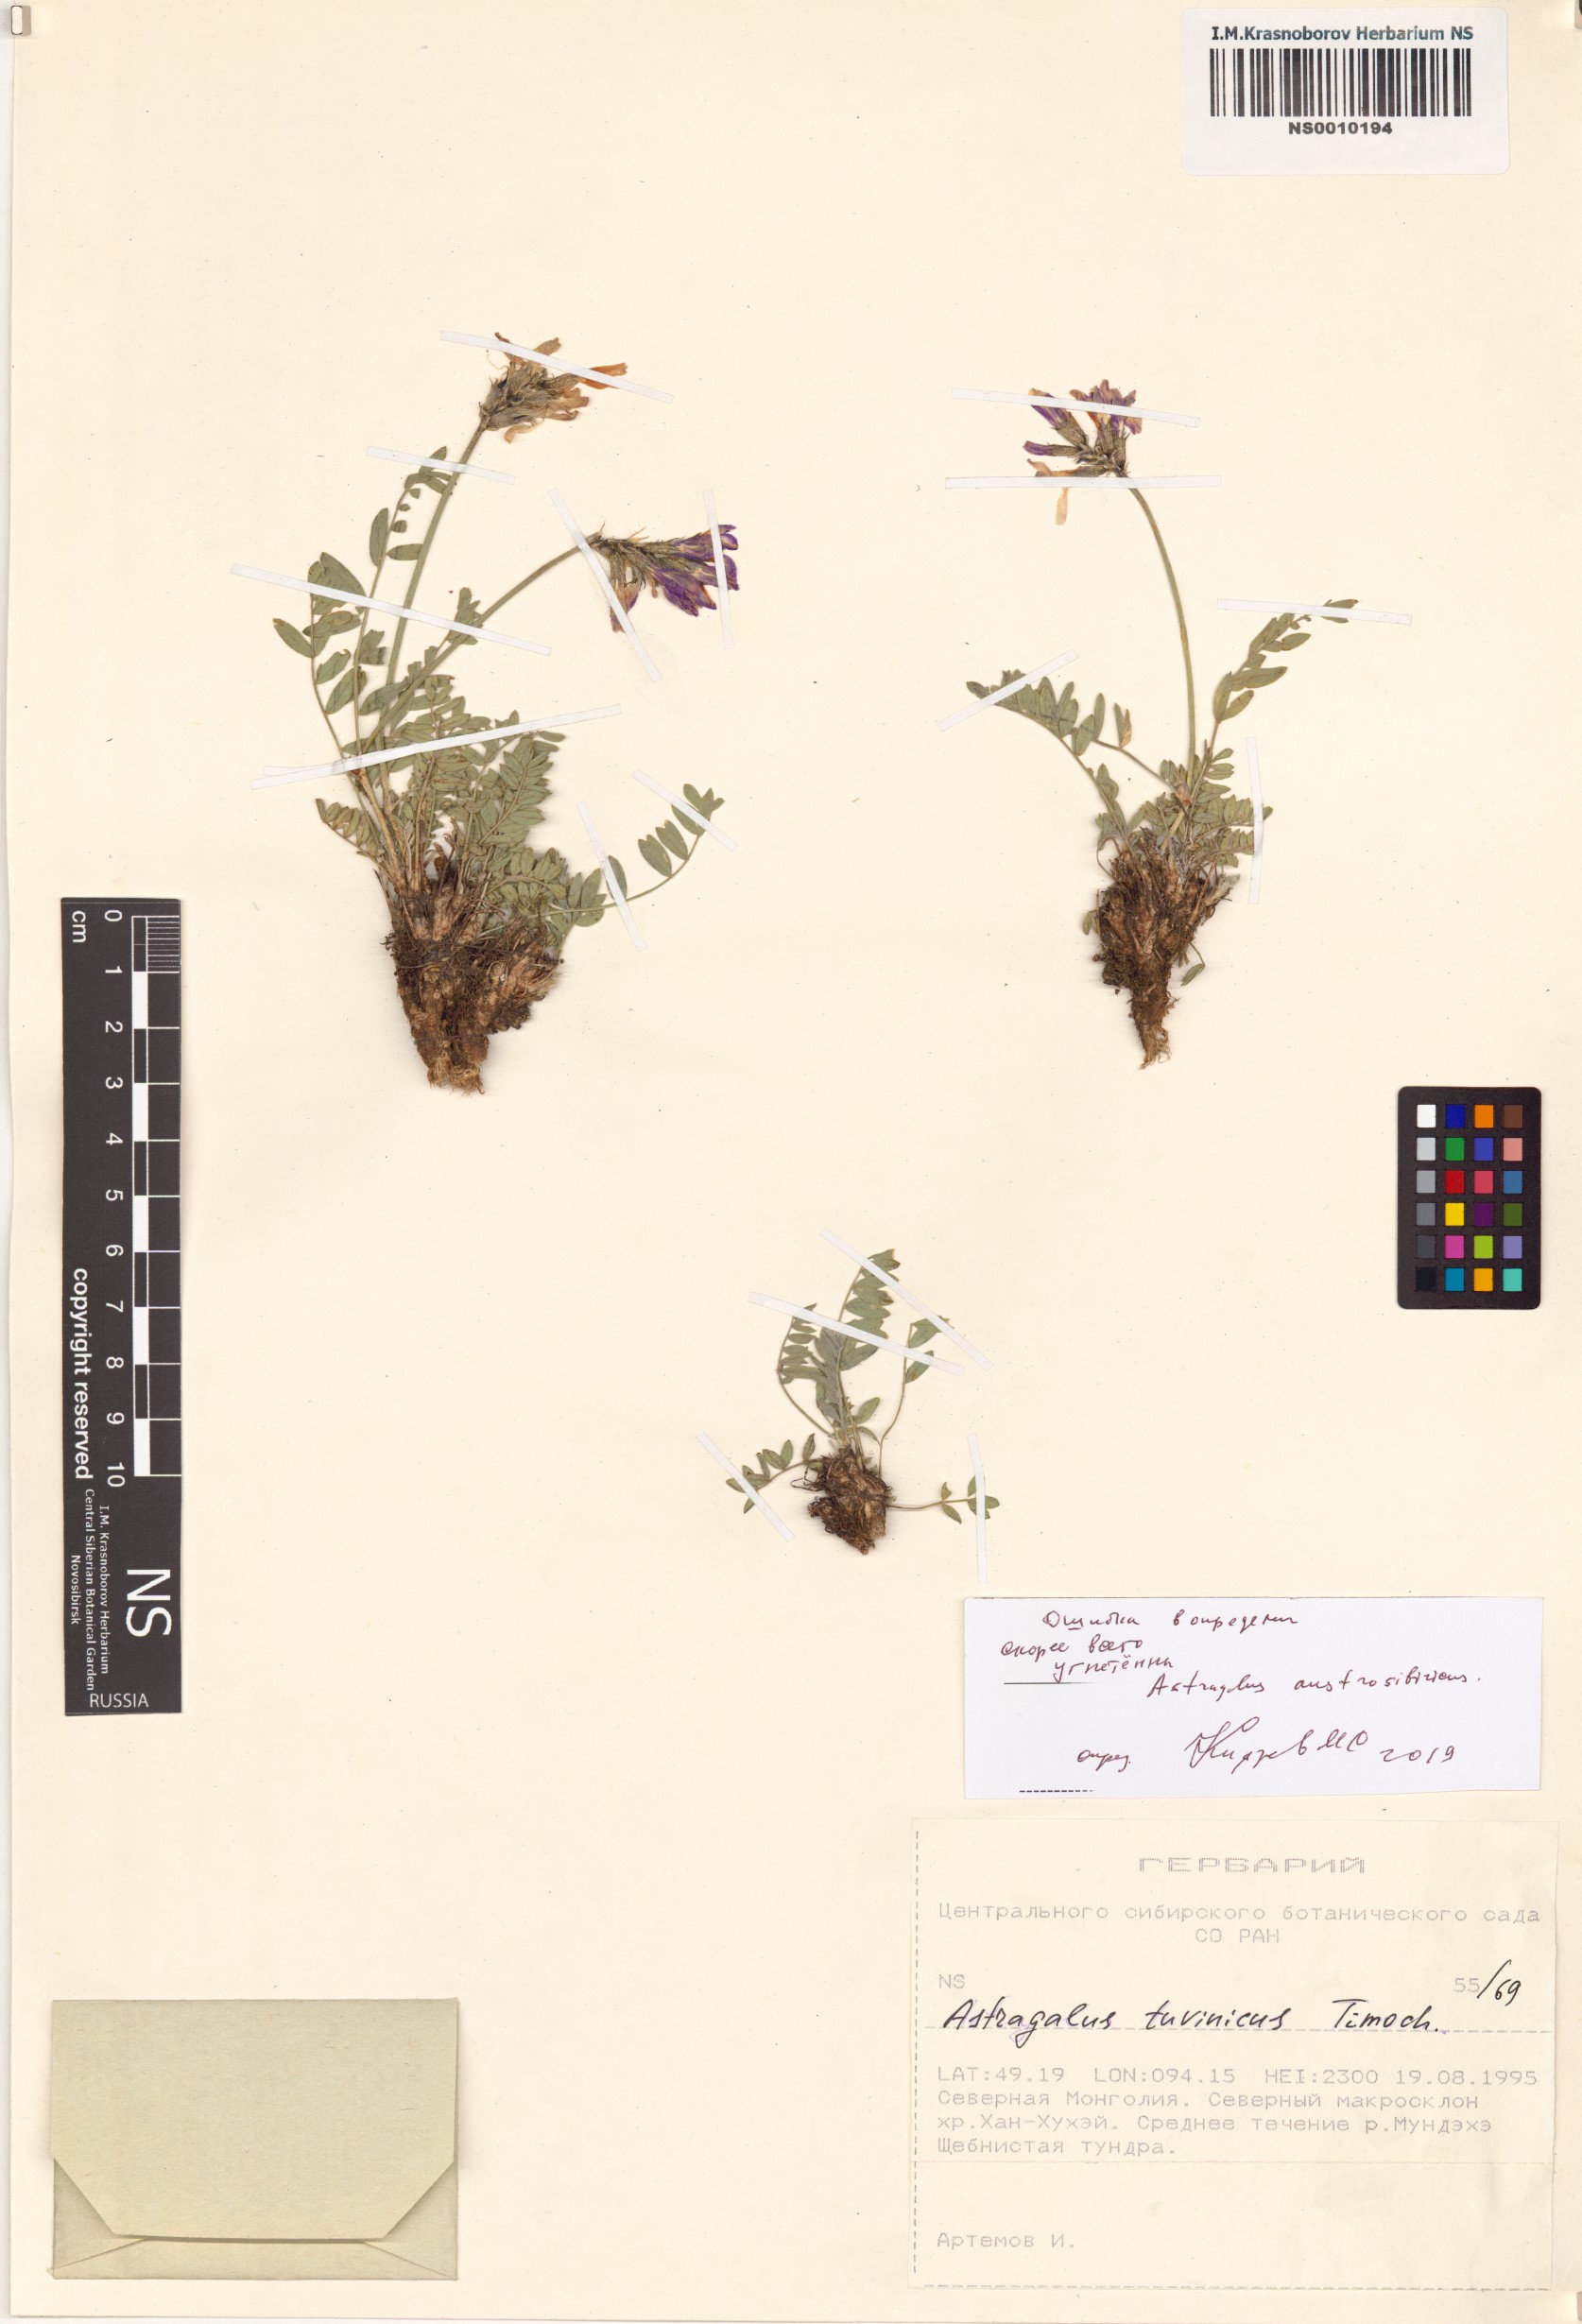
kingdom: Plantae
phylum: Tracheophyta
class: Magnoliopsida
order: Fabales
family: Fabaceae
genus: Astragalus
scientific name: Astragalus laxmannii
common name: Laxmann's milk-vetch
